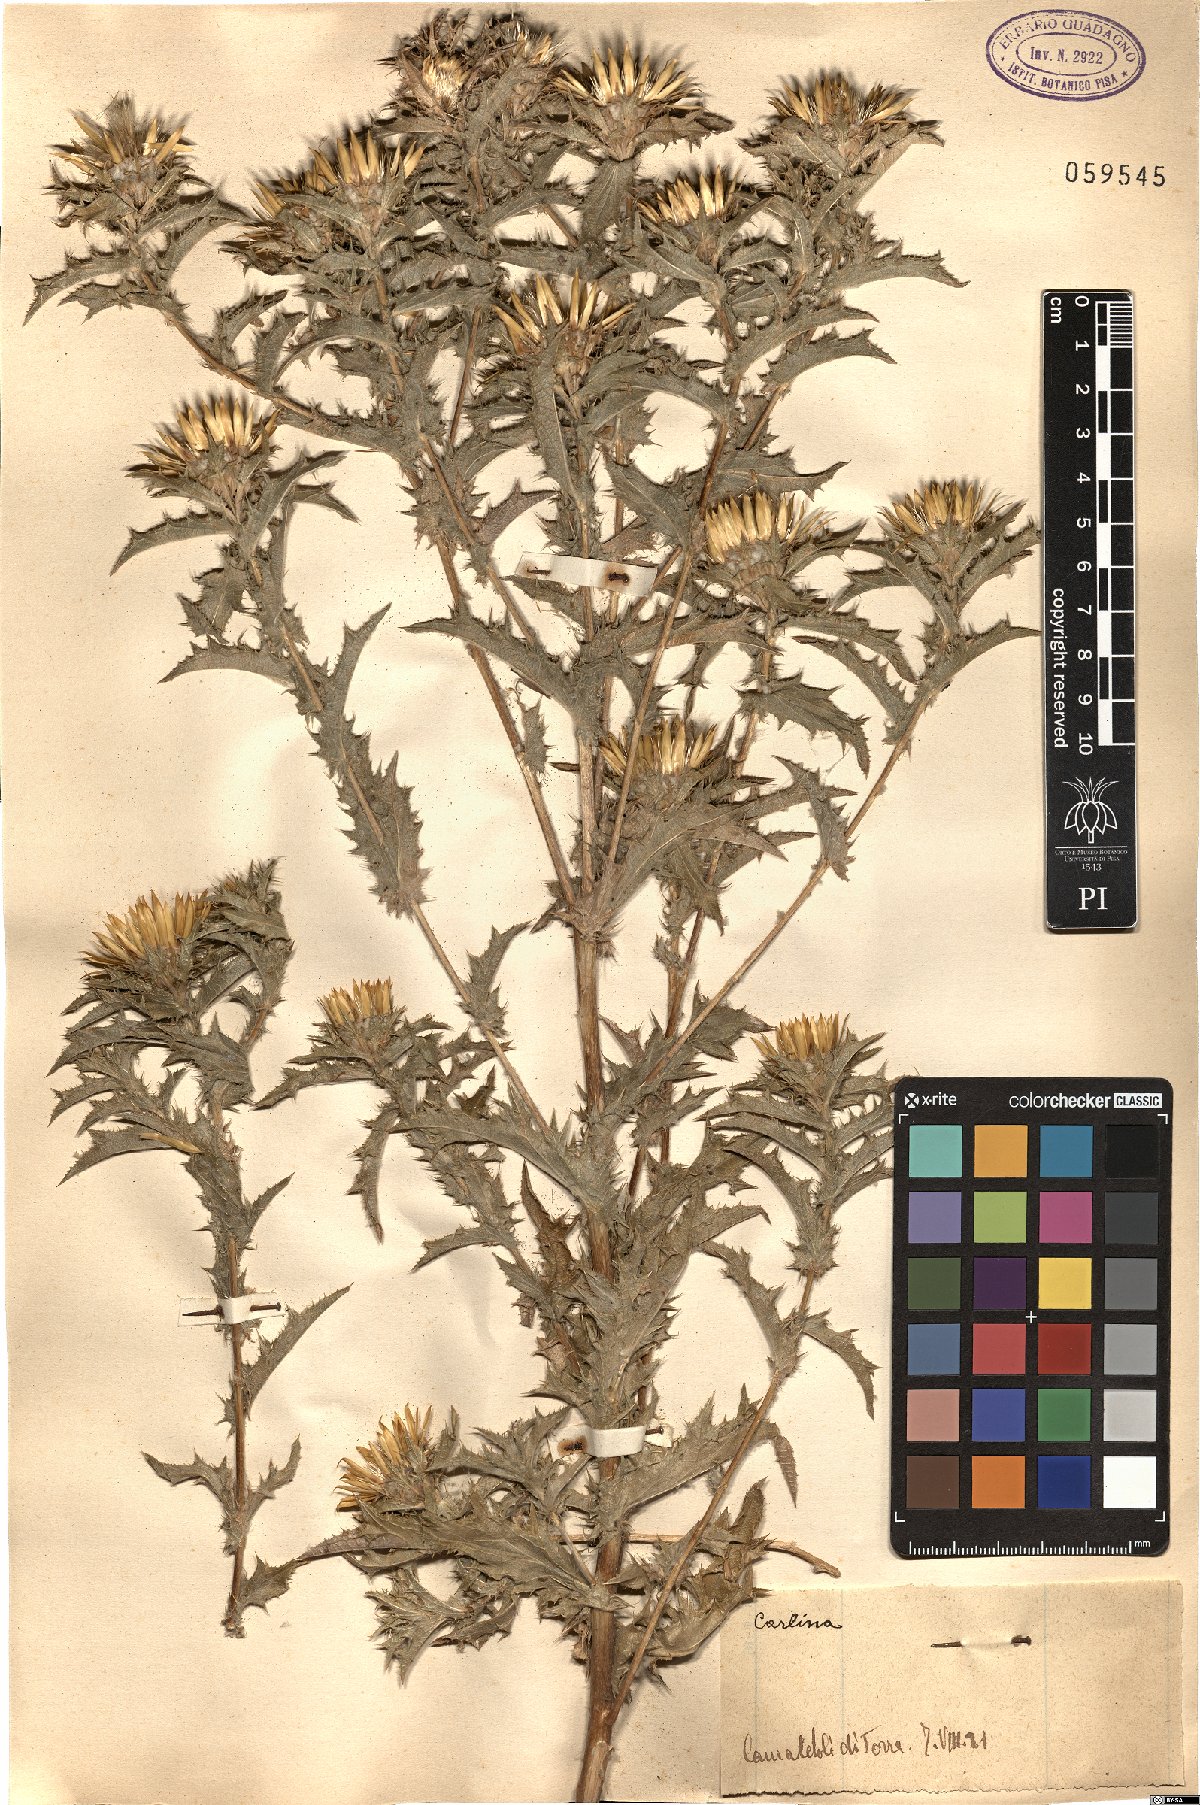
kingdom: Plantae
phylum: Tracheophyta
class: Magnoliopsida
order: Asterales
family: Asteraceae
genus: Carlina
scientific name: Carlina
